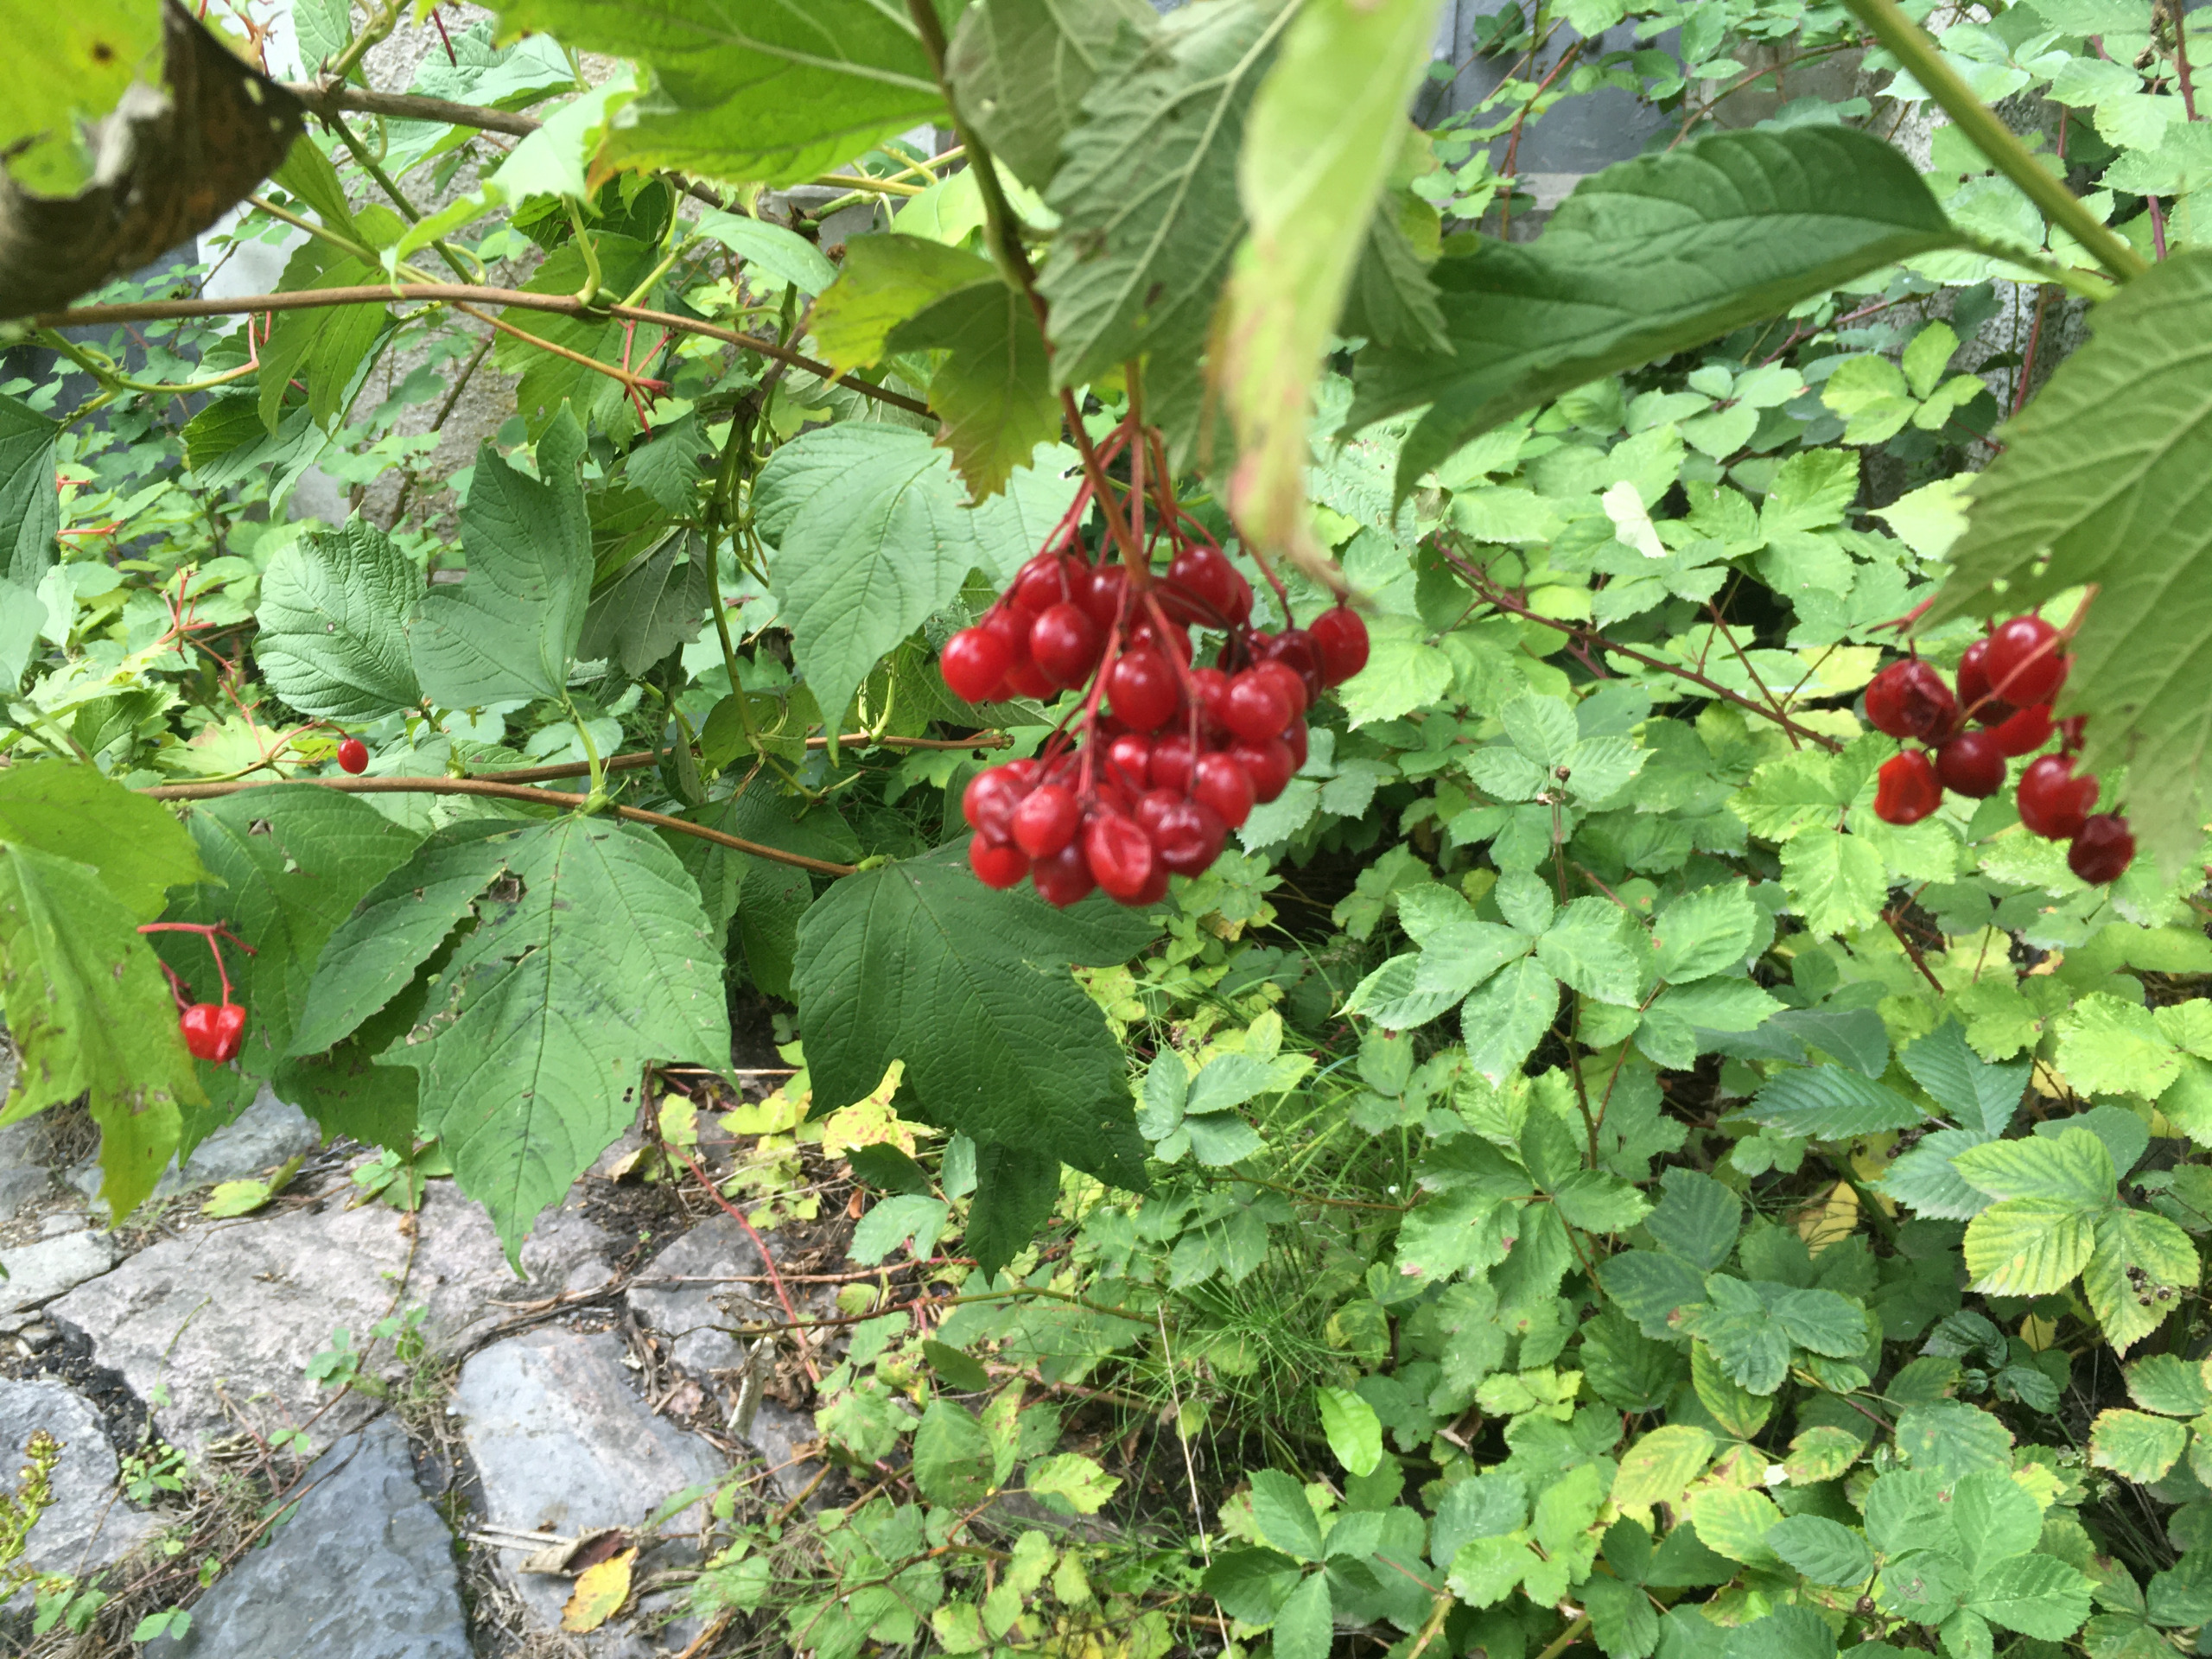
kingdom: Plantae
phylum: Tracheophyta
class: Magnoliopsida
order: Dipsacales
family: Viburnaceae
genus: Viburnum
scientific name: Viburnum opulus
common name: Kvalkved
